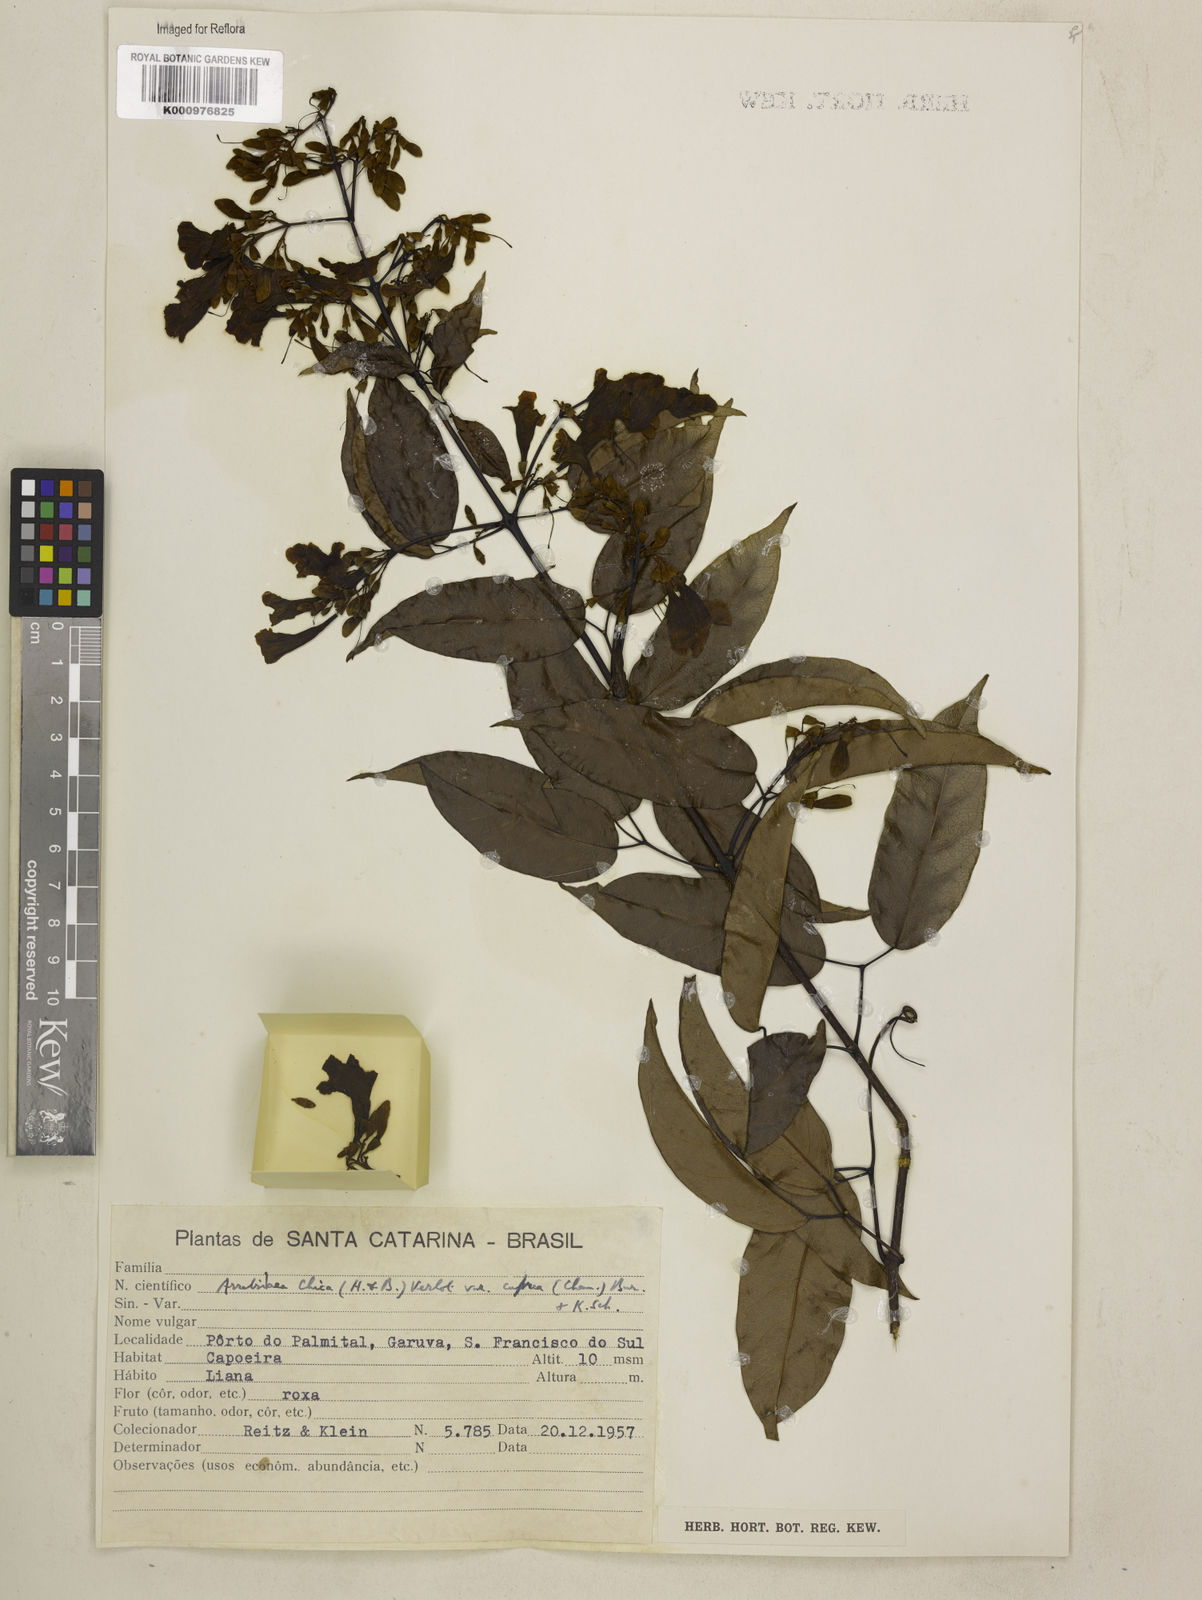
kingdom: Plantae
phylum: Tracheophyta
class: Magnoliopsida
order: Lamiales
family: Bignoniaceae
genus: Fridericia
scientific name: Fridericia chica
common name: Cricketvine
